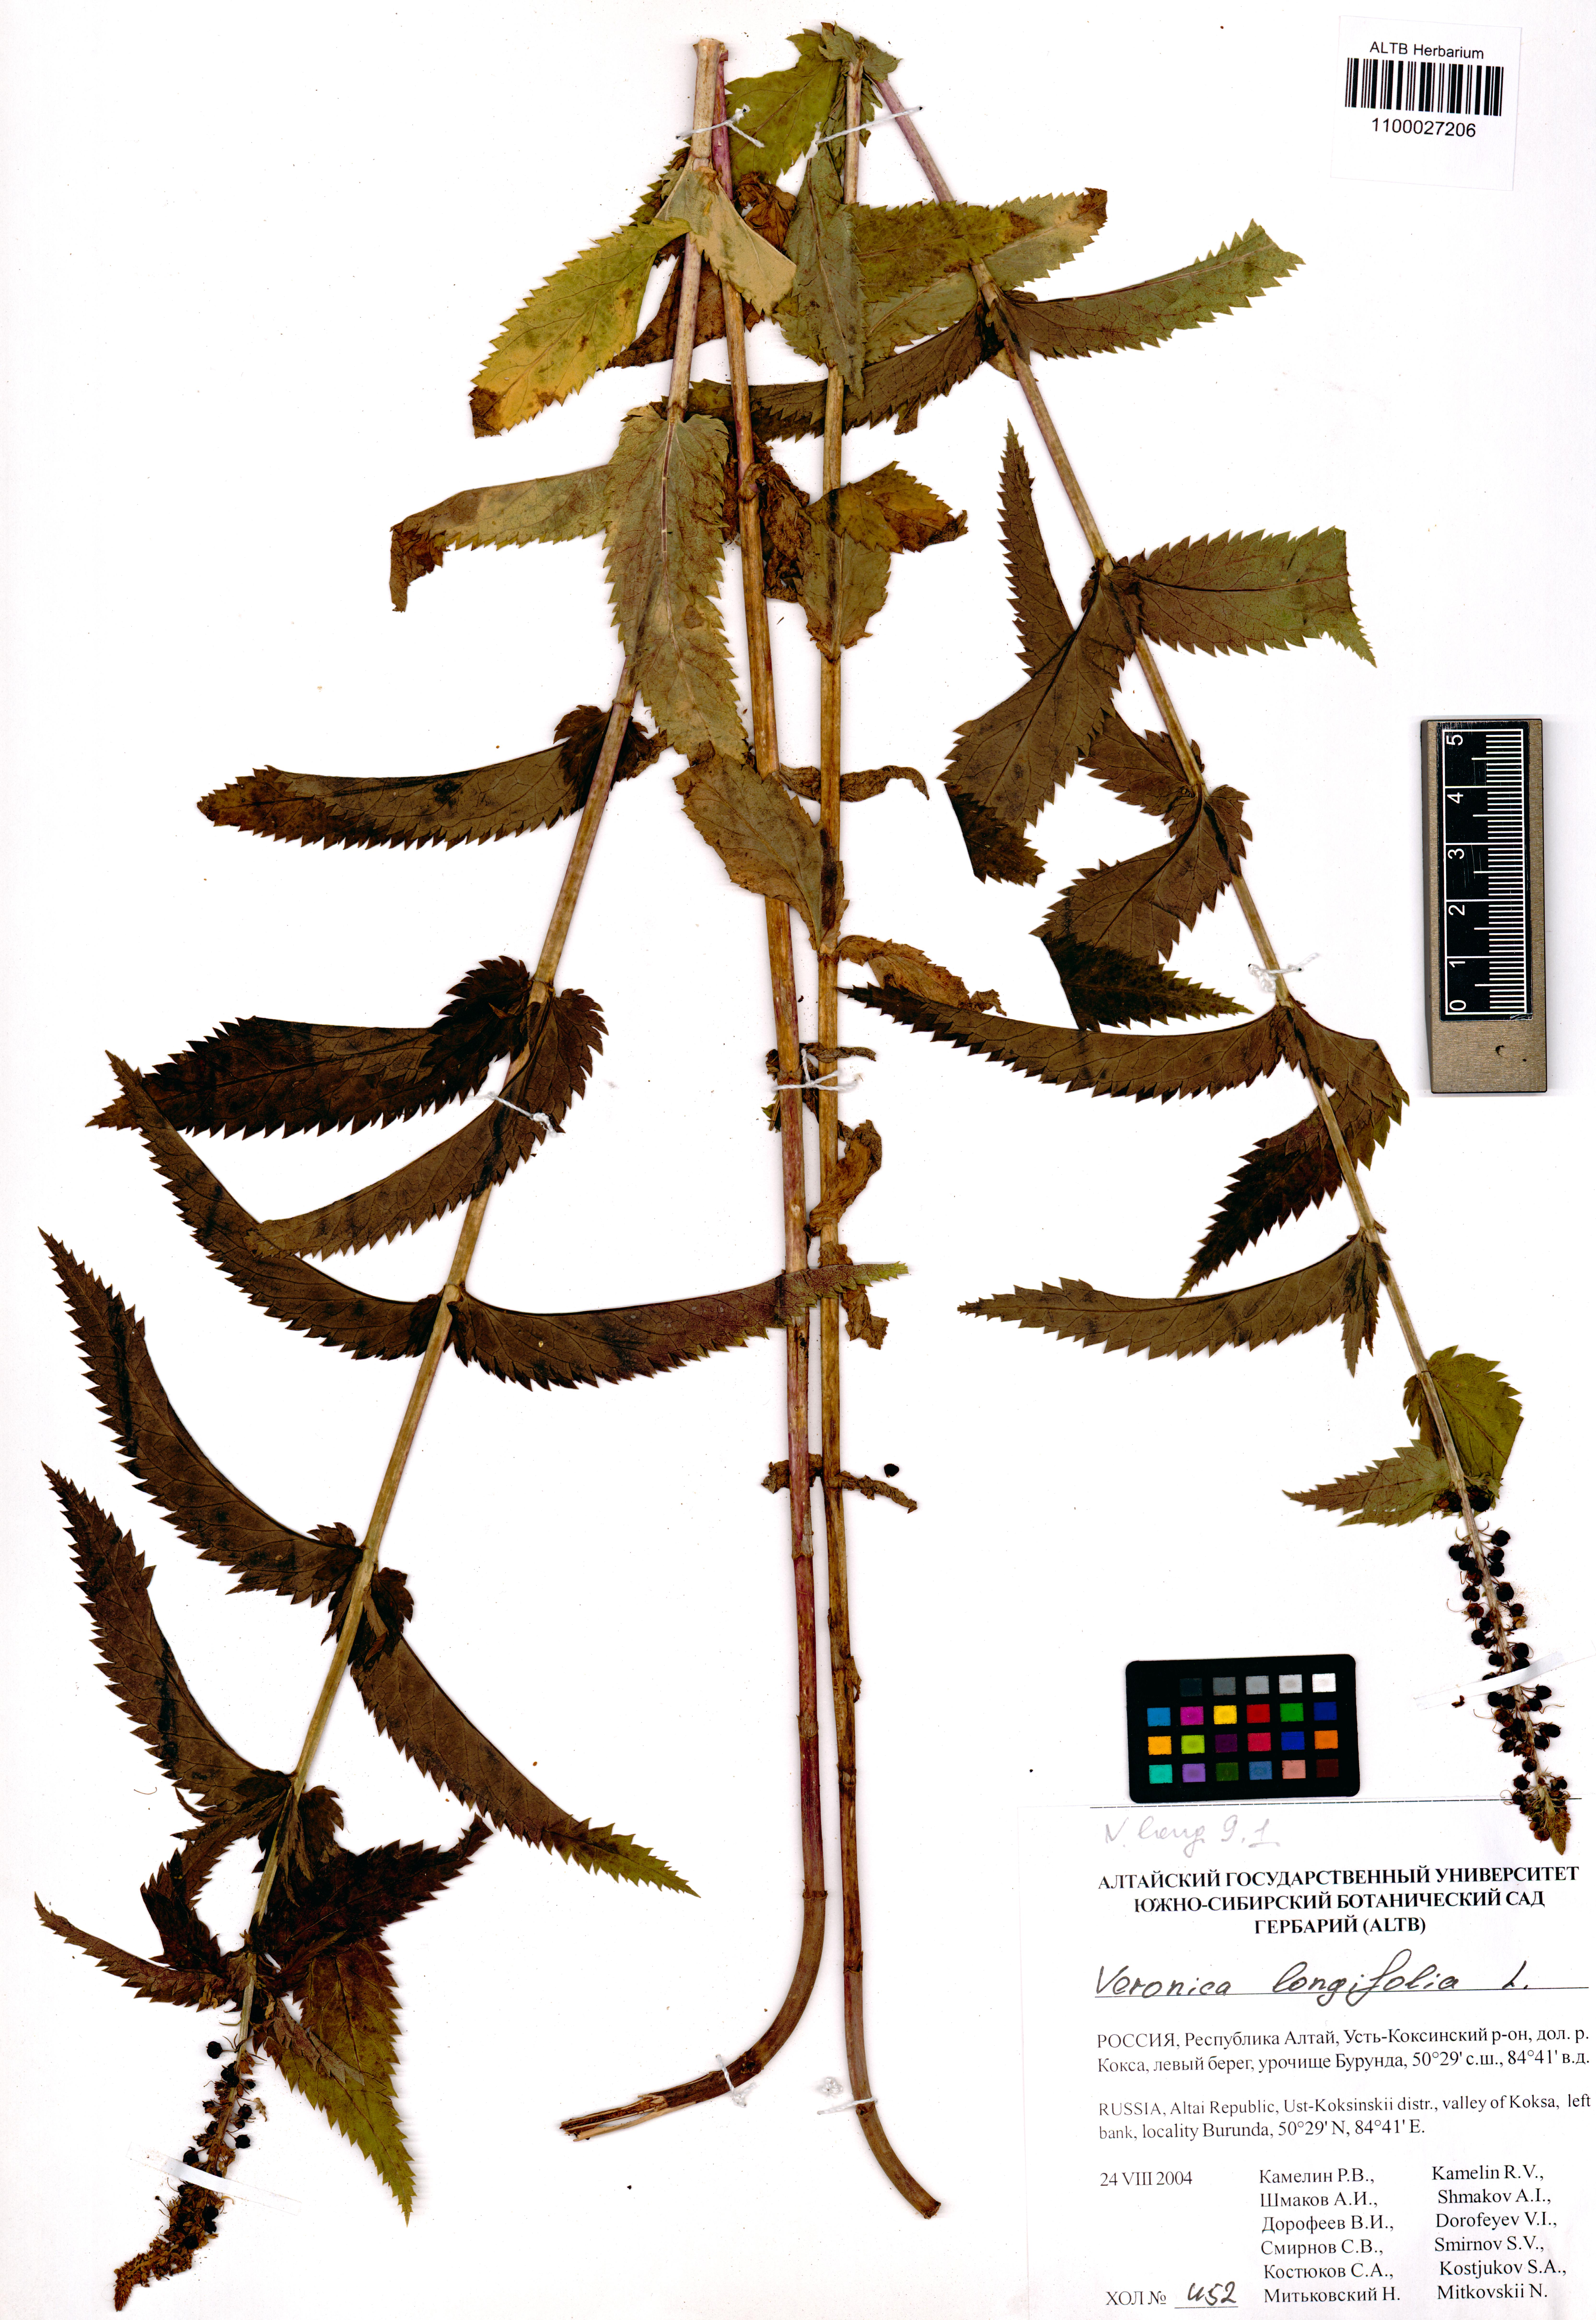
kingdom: Plantae
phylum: Tracheophyta
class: Magnoliopsida
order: Lamiales
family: Plantaginaceae
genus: Veronica
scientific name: Veronica longifolia
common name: Garden speedwell
